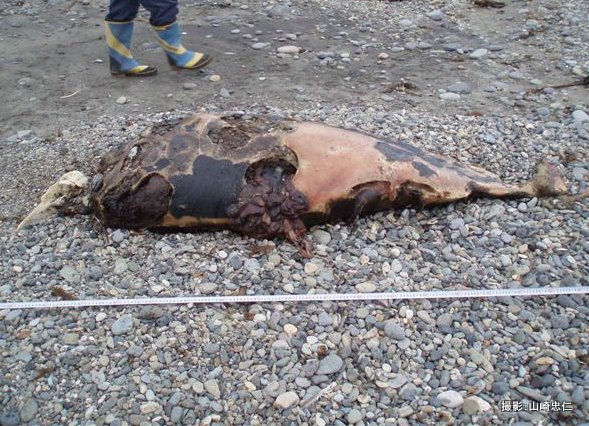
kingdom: Animalia
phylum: Chordata
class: Mammalia
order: Cetacea
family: Phocoenidae
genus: Phocoenoides
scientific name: Phocoenoides dalli
